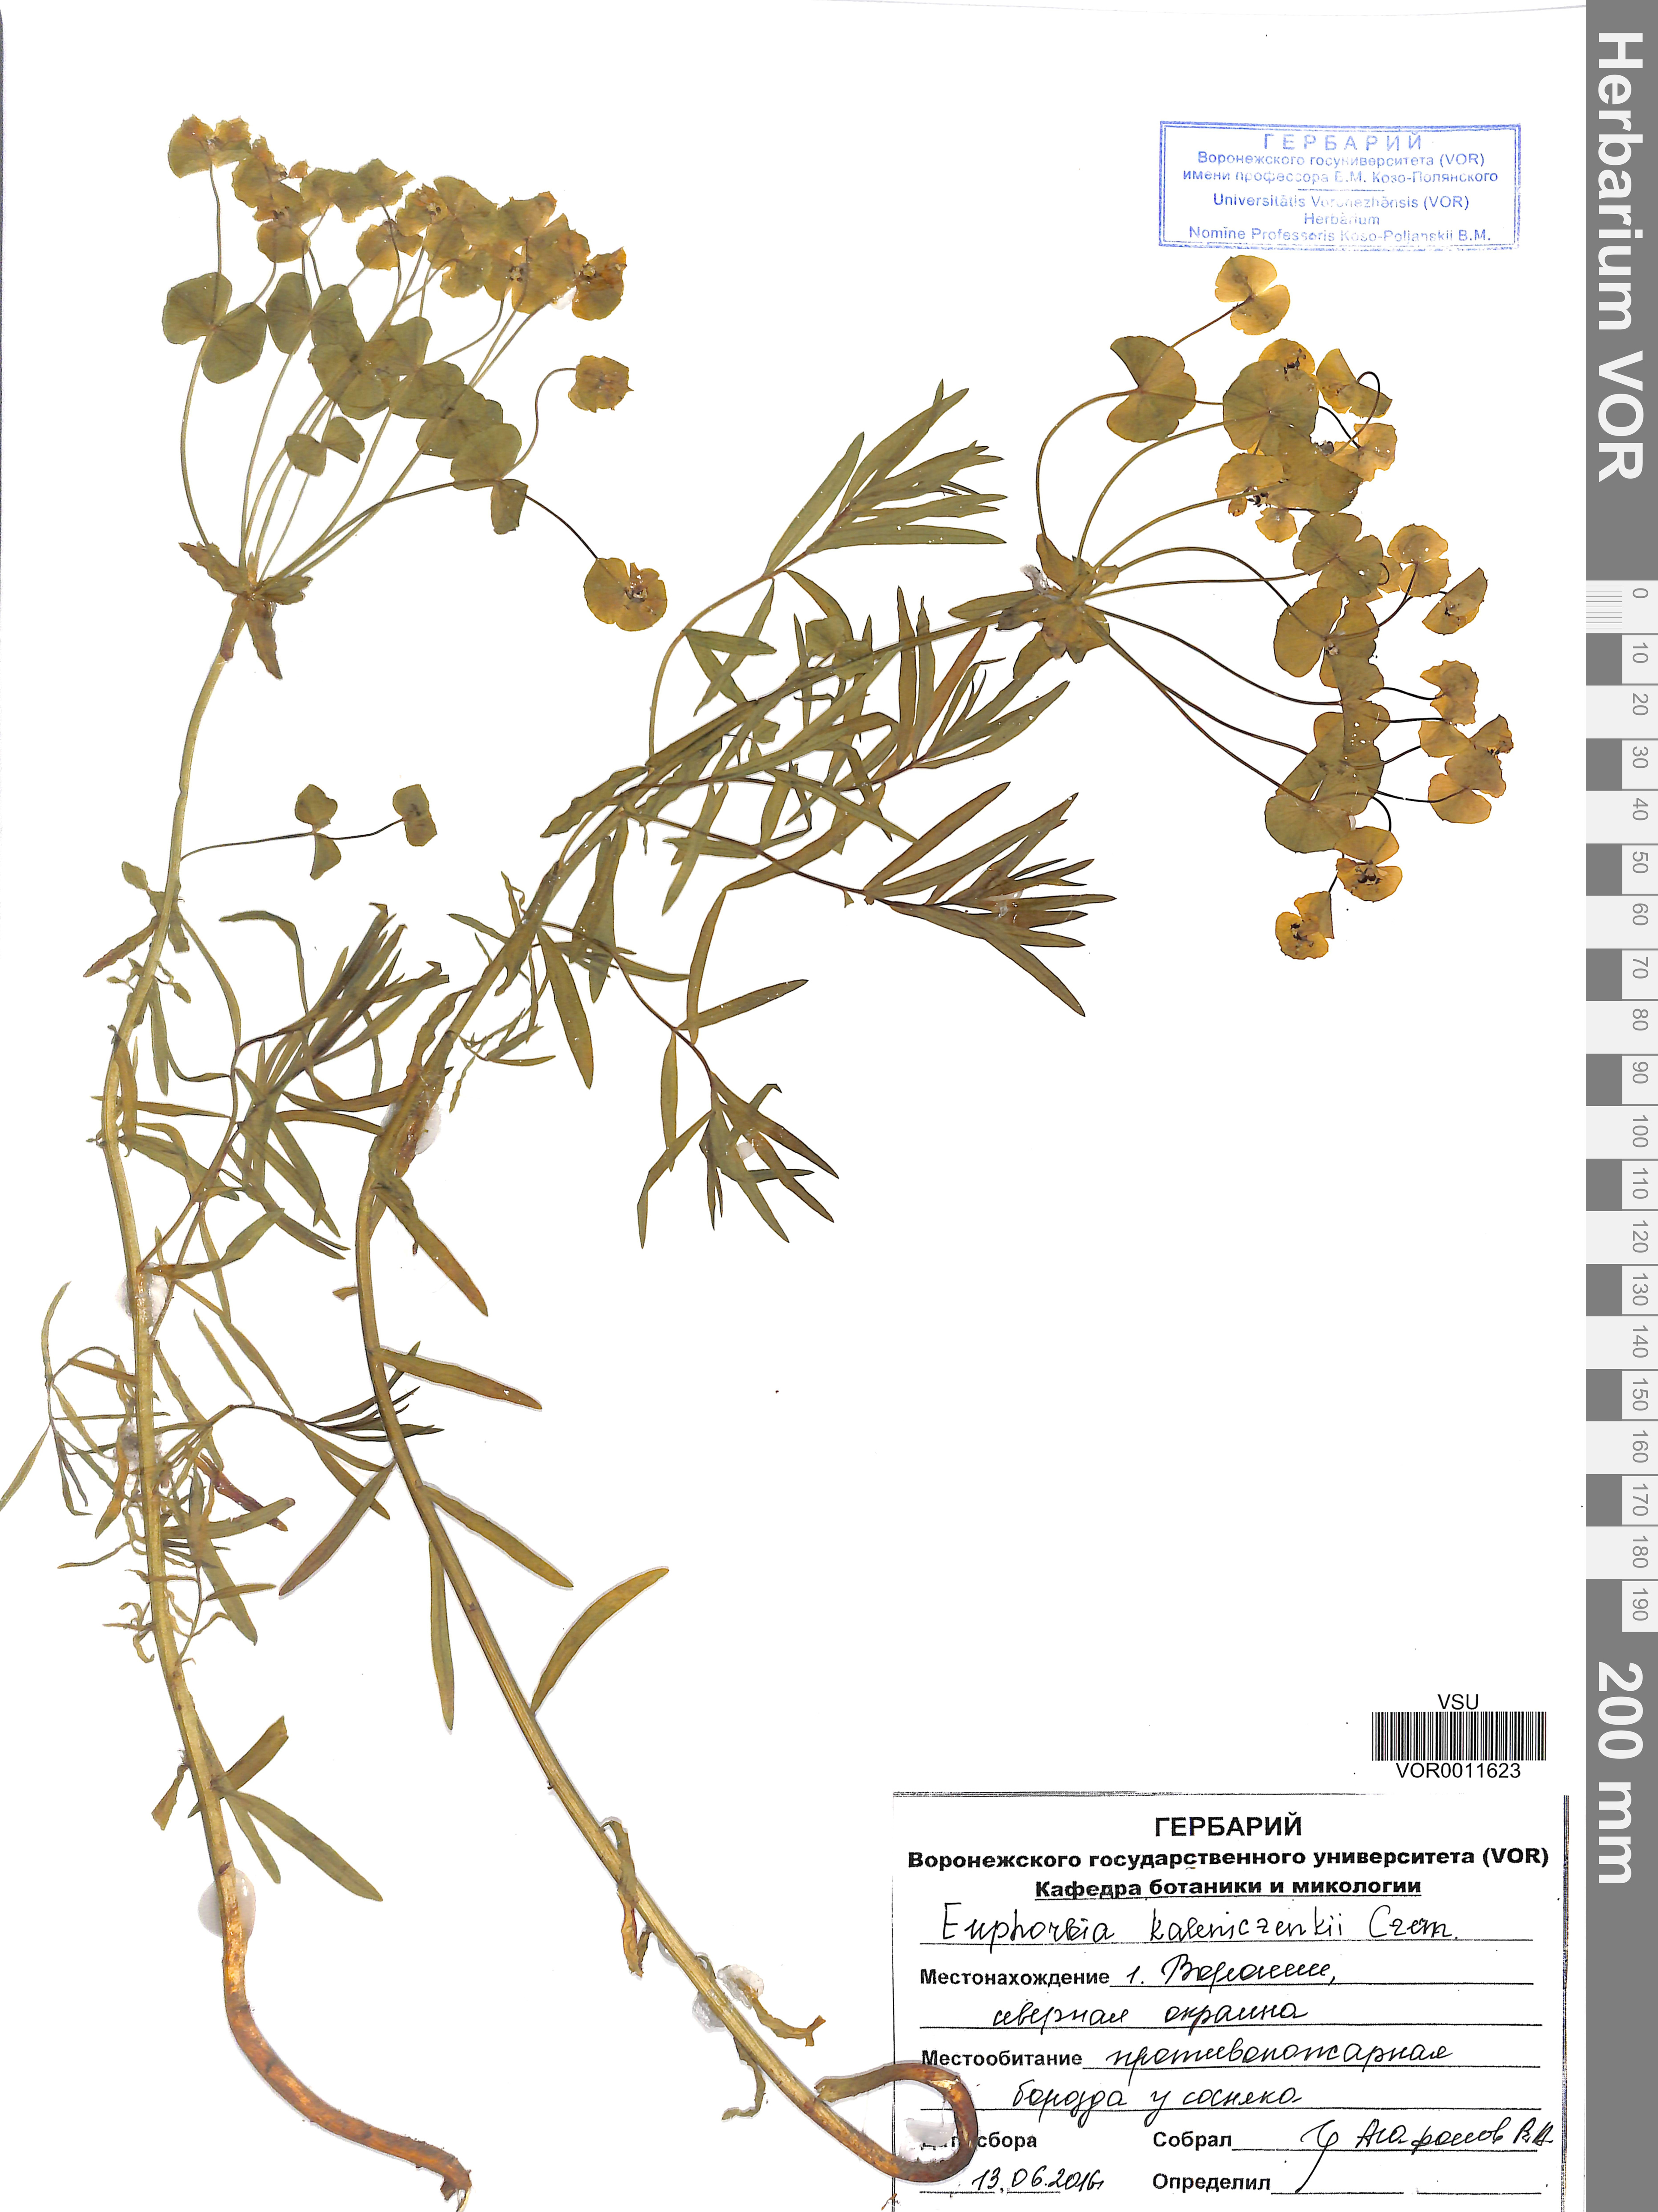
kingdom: Plantae
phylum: Tracheophyta
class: Magnoliopsida
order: Malpighiales
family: Euphorbiaceae
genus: Euphorbia
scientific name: Euphorbia esula
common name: Leafy spurge
